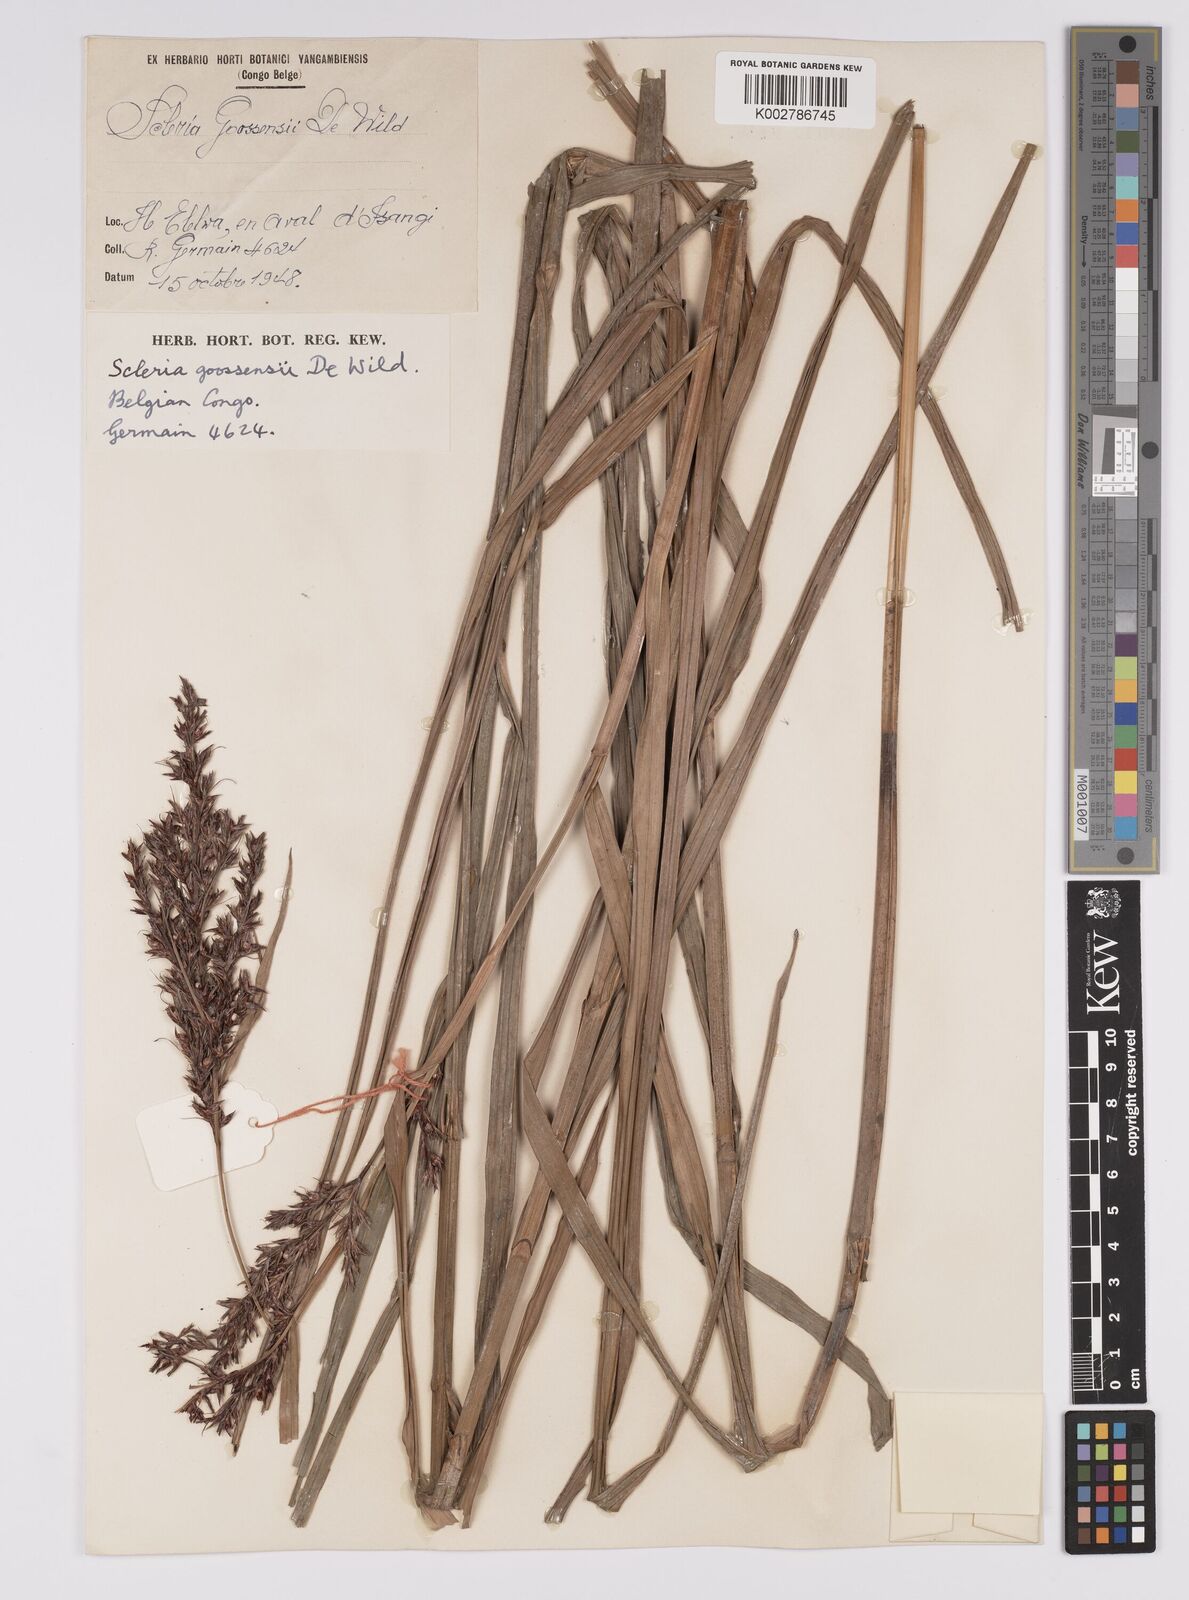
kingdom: Plantae
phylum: Tracheophyta
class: Liliopsida
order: Poales
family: Cyperaceae
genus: Scleria
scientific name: Scleria goossensii
